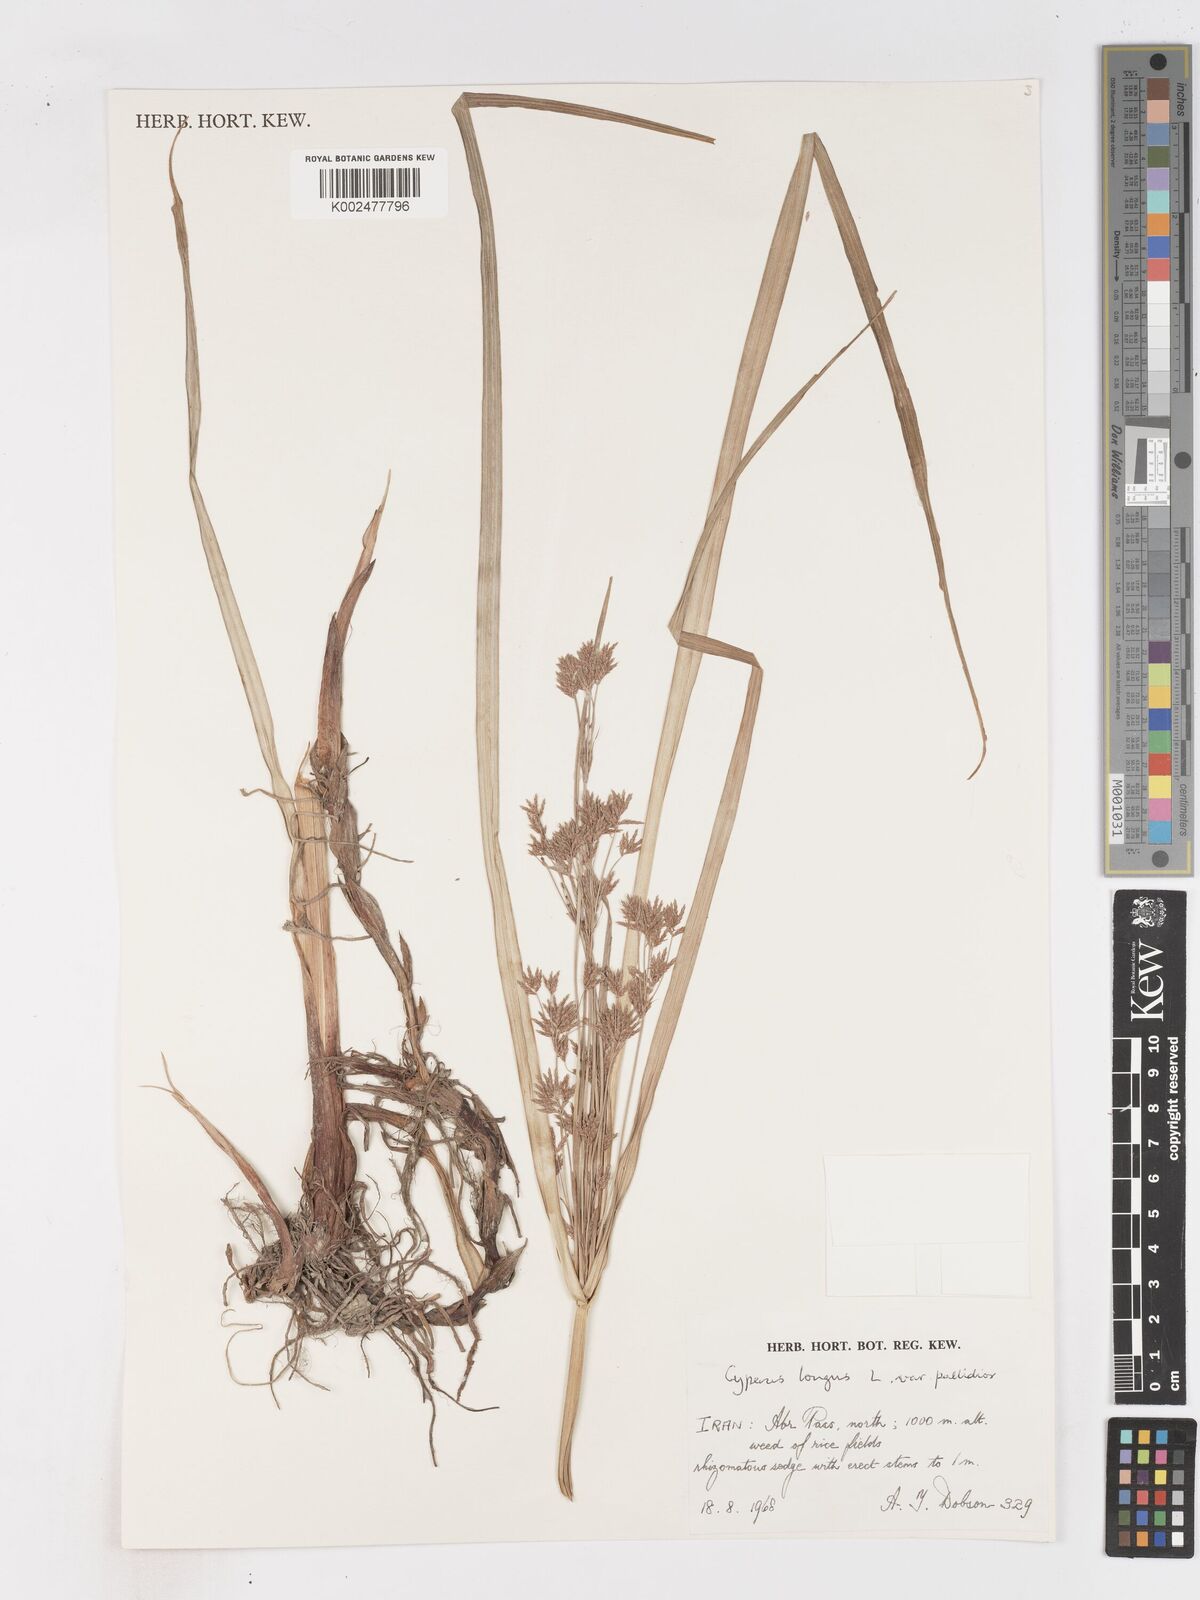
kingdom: Plantae
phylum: Tracheophyta
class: Liliopsida
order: Poales
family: Cyperaceae
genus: Cyperus
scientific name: Cyperus longus
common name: Galingale
